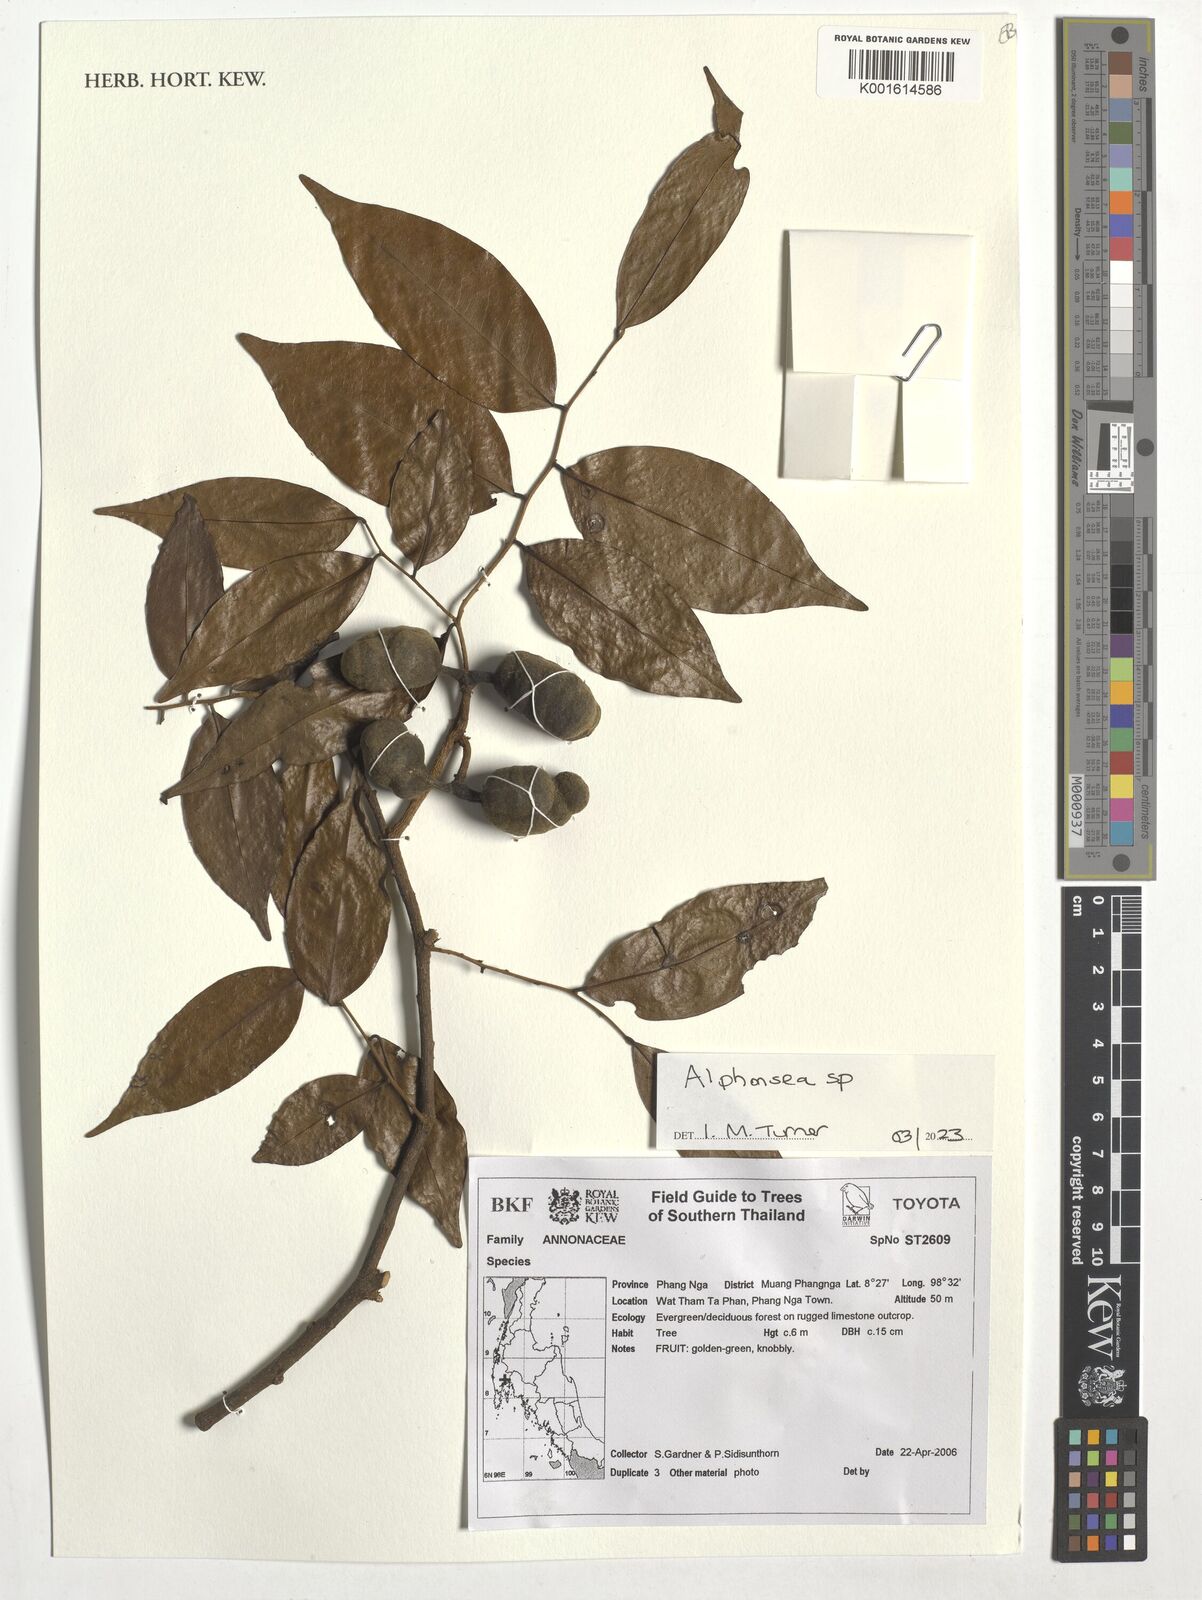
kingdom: Plantae
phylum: Tracheophyta
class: Magnoliopsida
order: Magnoliales
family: Annonaceae
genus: Alphonsea
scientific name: Alphonsea
